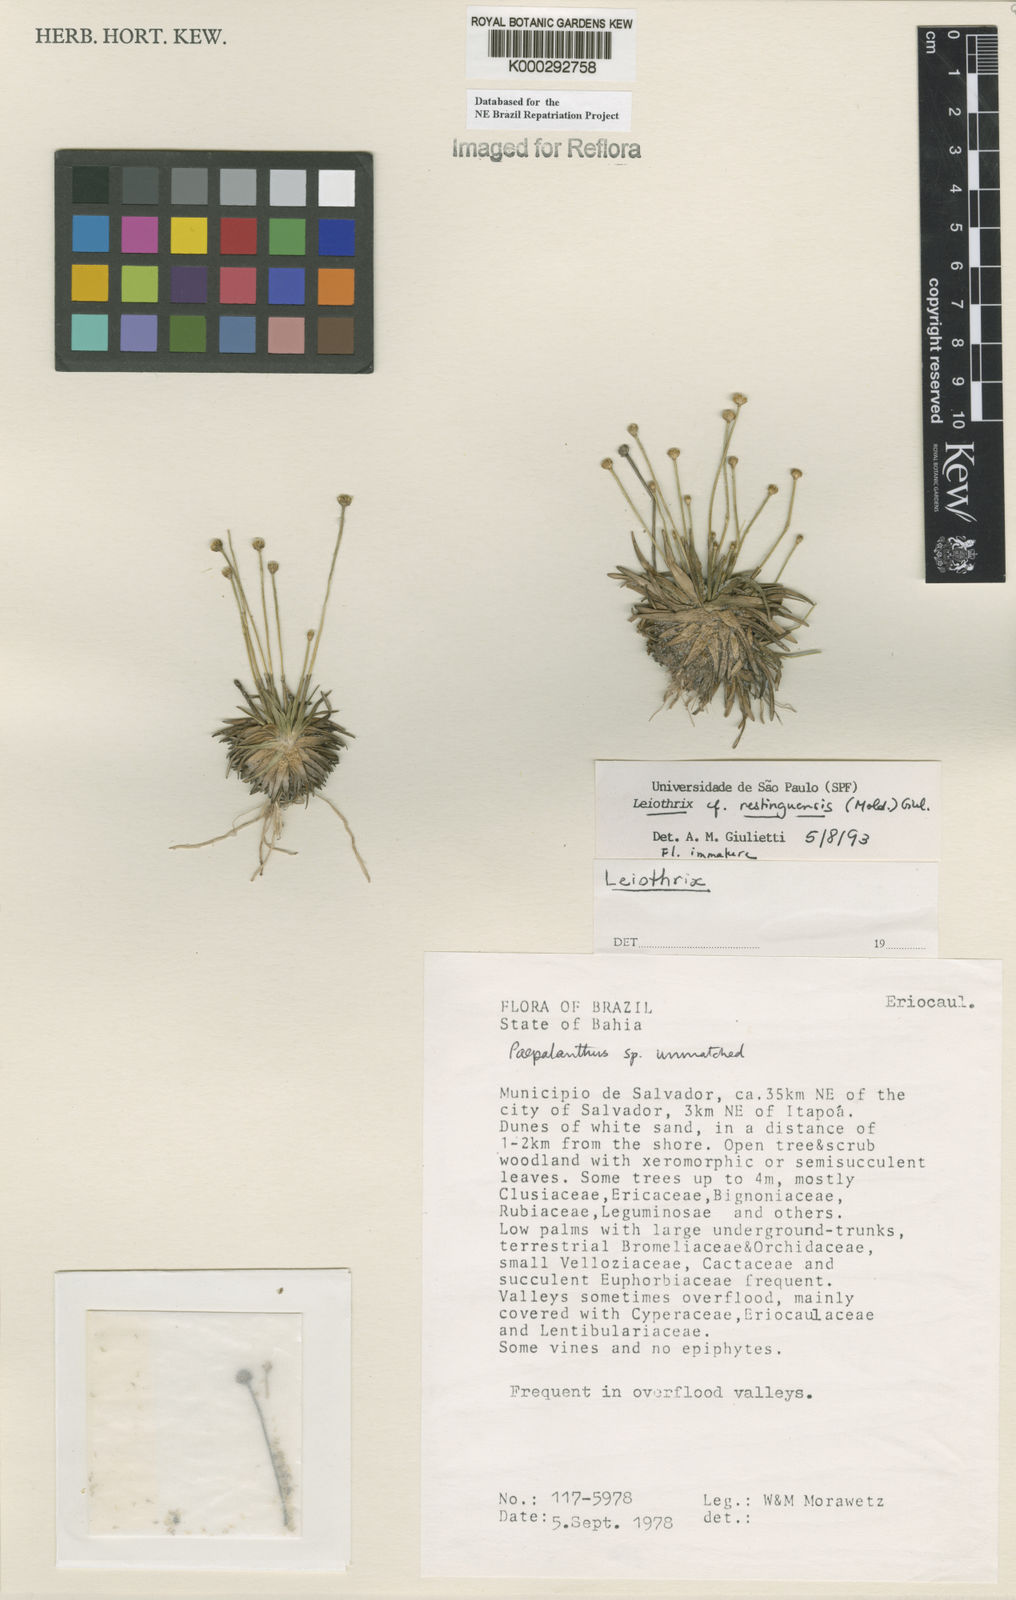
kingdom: Plantae
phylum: Tracheophyta
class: Liliopsida
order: Poales
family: Eriocaulaceae
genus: Leiothrix
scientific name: Leiothrix
